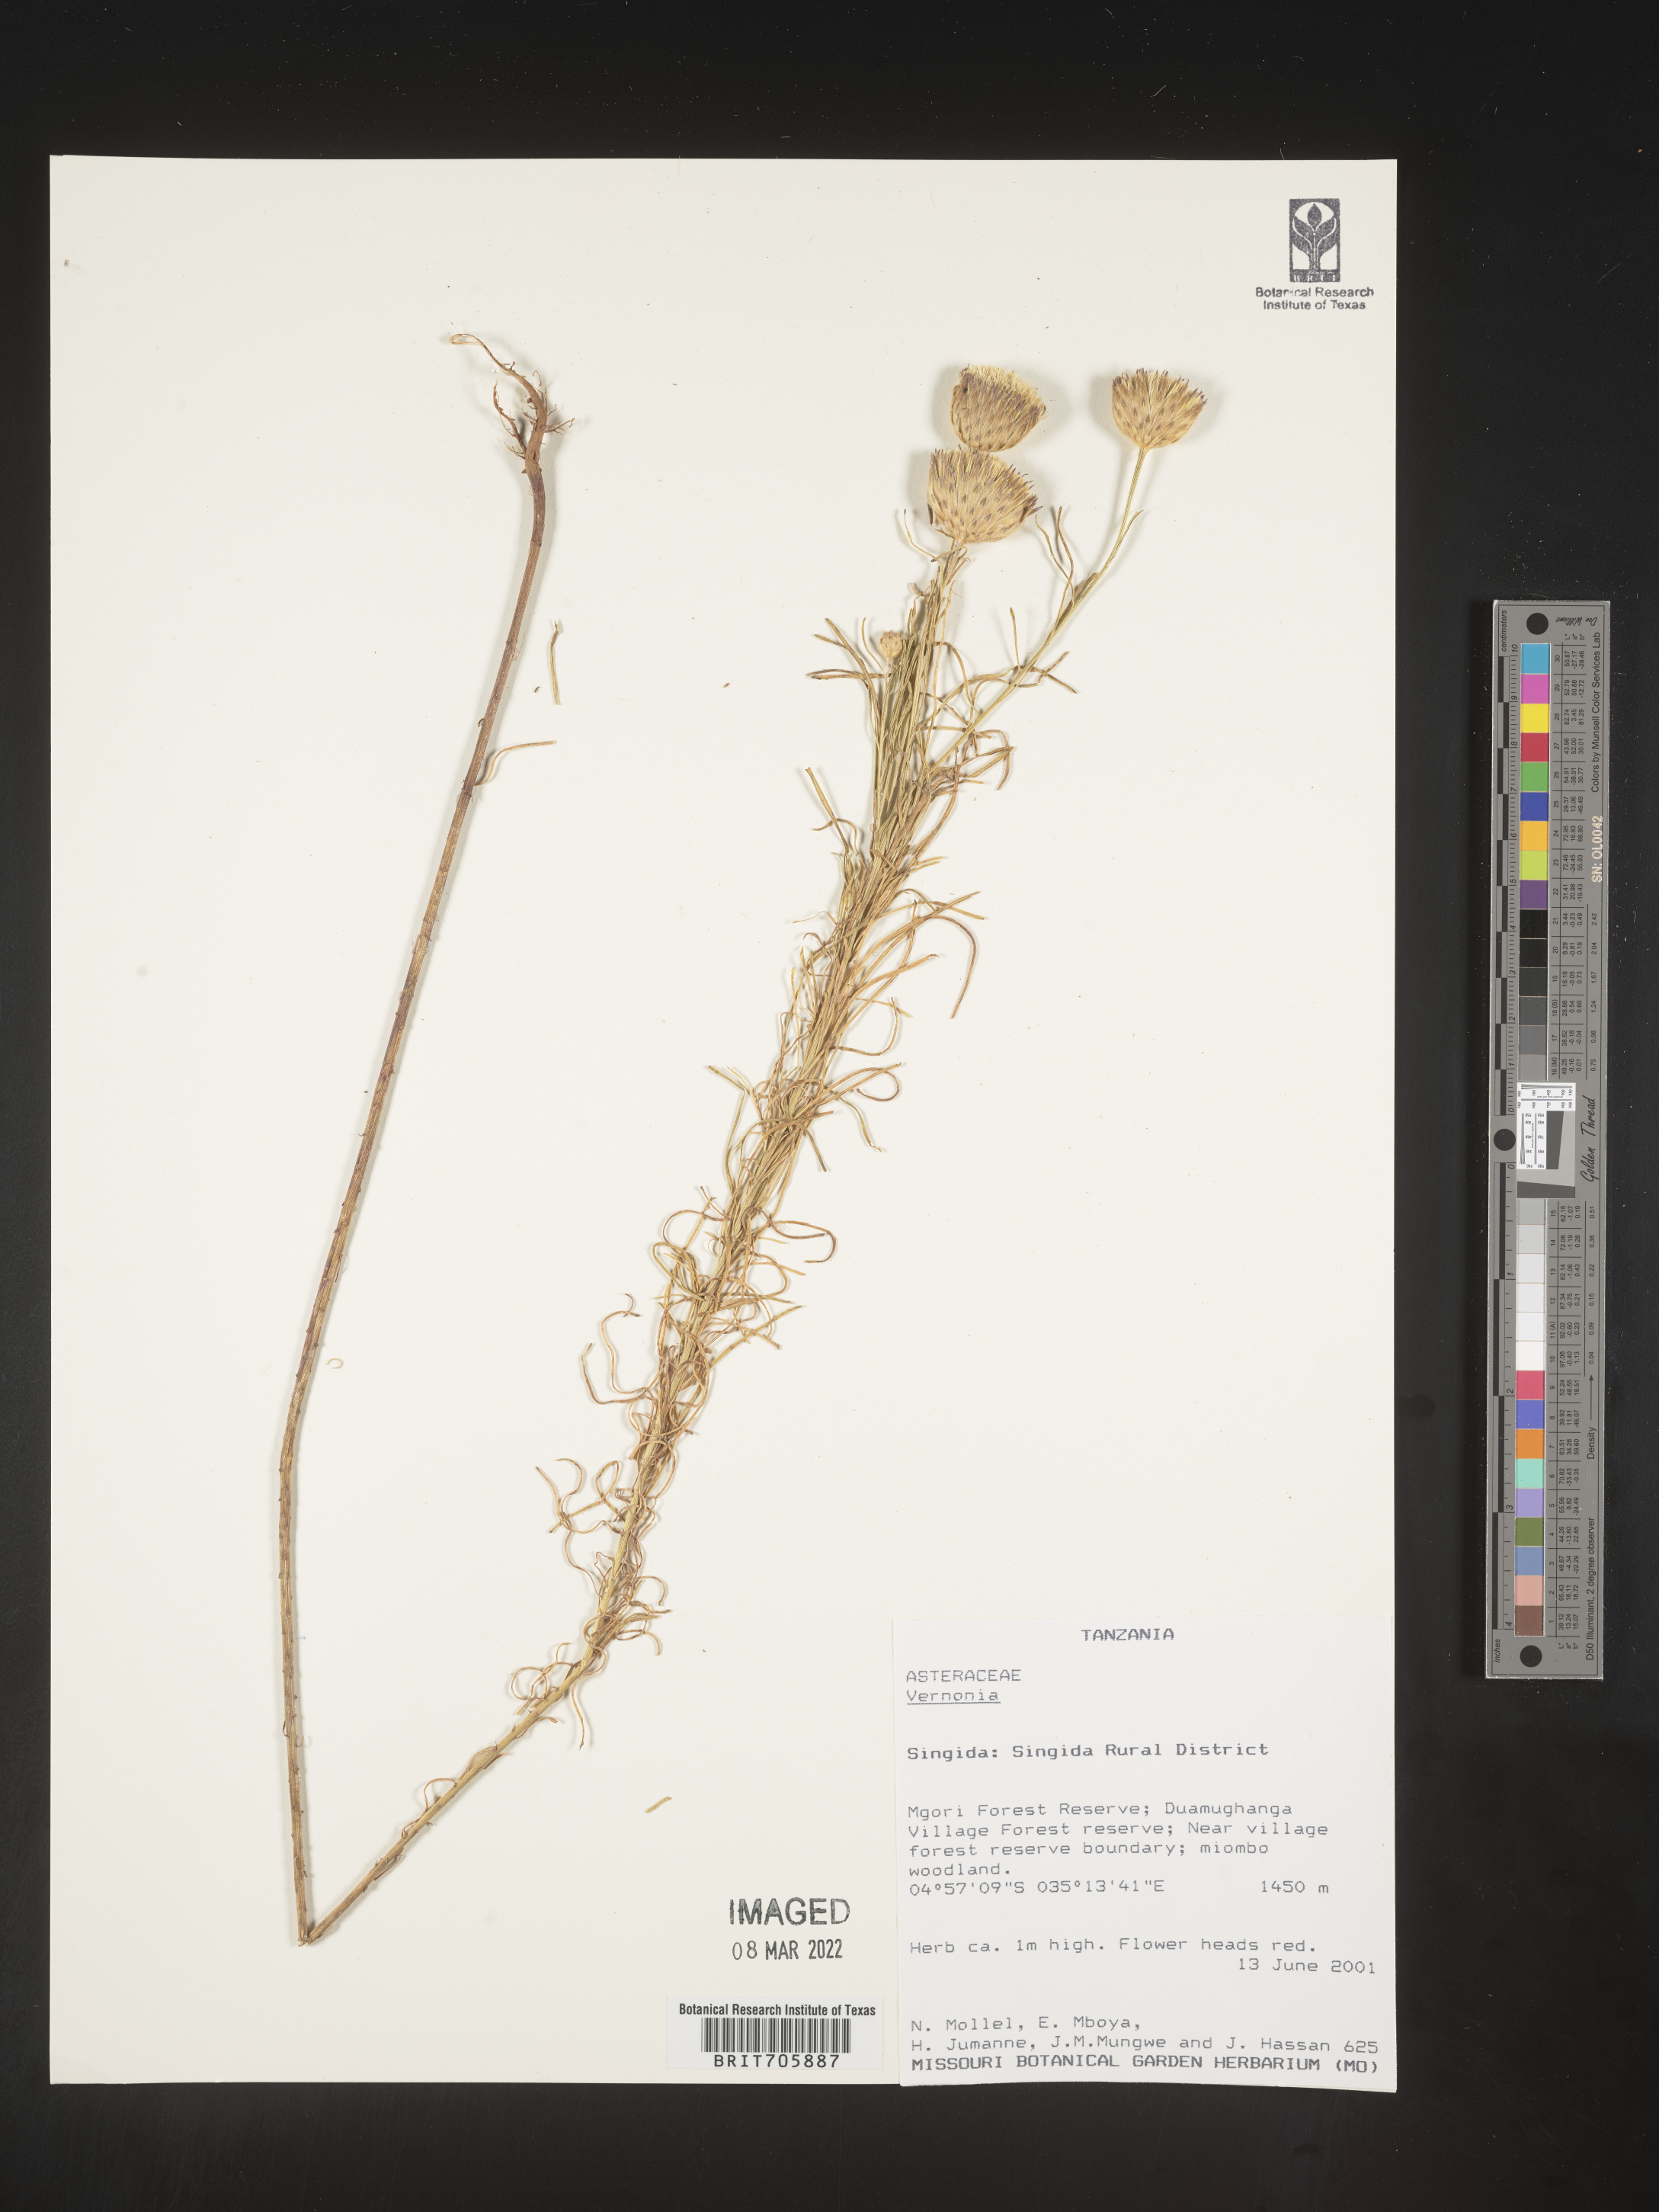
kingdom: Plantae
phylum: Tracheophyta
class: Magnoliopsida
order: Asterales
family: Asteraceae
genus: Vernonia
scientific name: Vernonia
